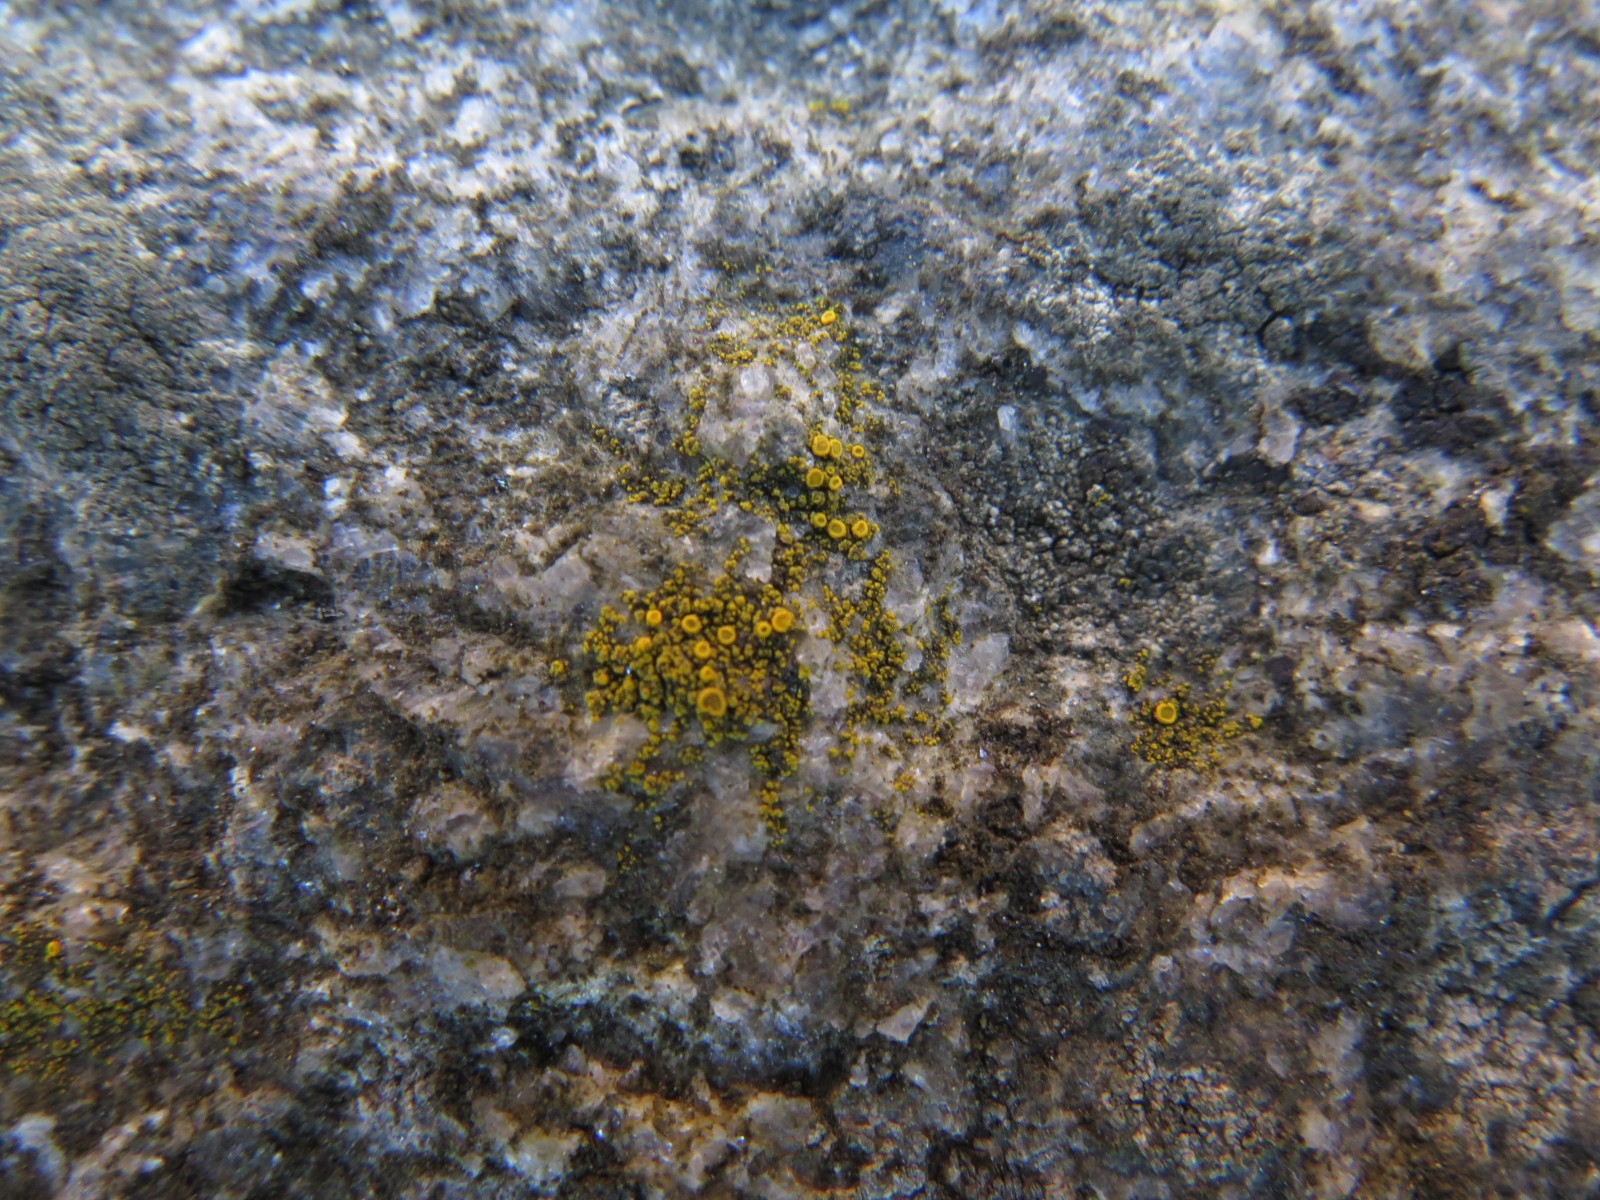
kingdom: Fungi
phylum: Ascomycota
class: Candelariomycetes
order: Candelariales
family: Candelariaceae
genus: Candelariella
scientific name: Candelariella aurella
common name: liden æggeblommelav
